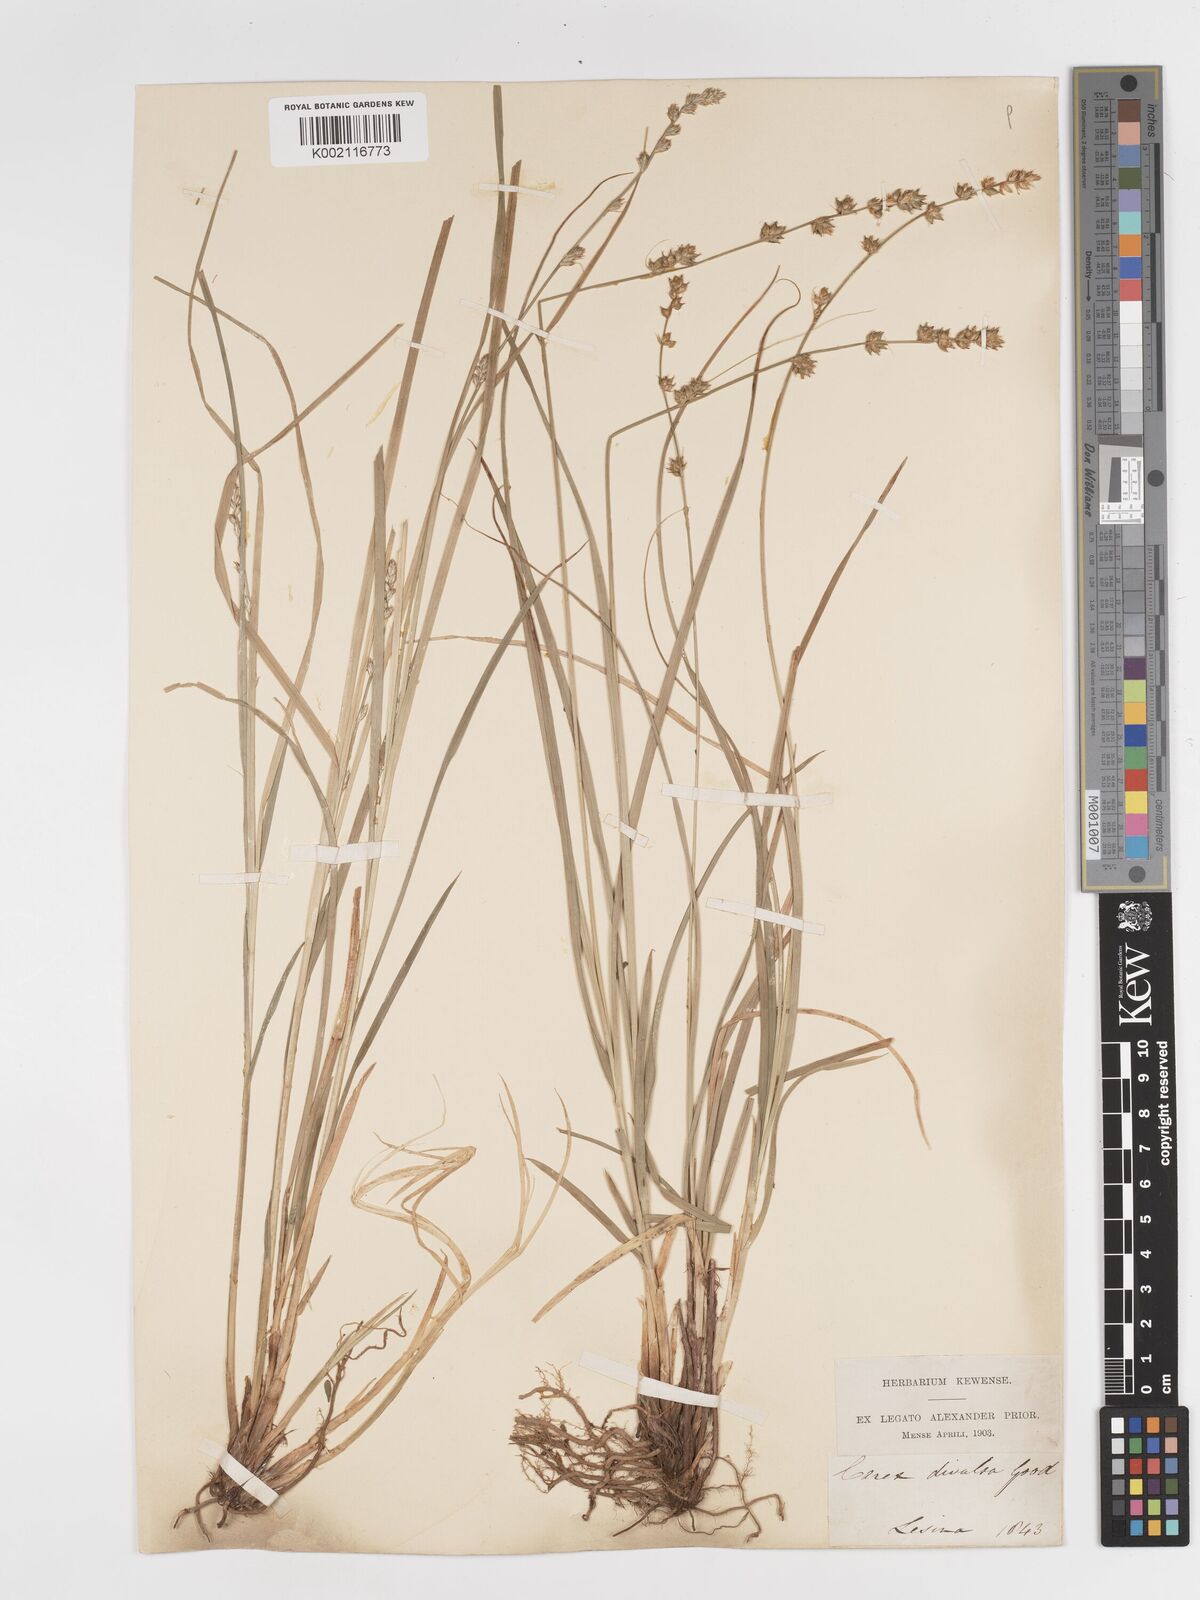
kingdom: Plantae
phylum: Tracheophyta
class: Liliopsida
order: Poales
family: Cyperaceae
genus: Carex
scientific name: Carex divulsa
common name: Grassland sedge
